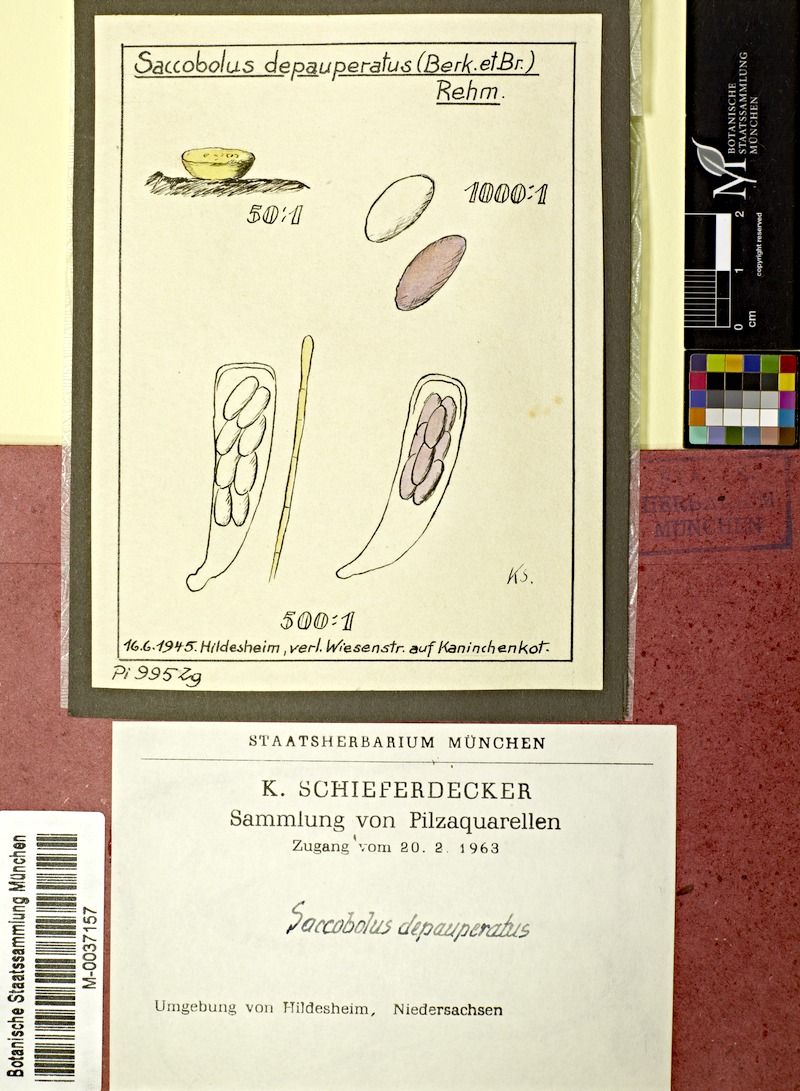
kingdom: Fungi
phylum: Ascomycota
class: Pezizomycetes
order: Pezizales
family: Ascobolaceae
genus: Saccobolus
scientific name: Saccobolus depauperatus
